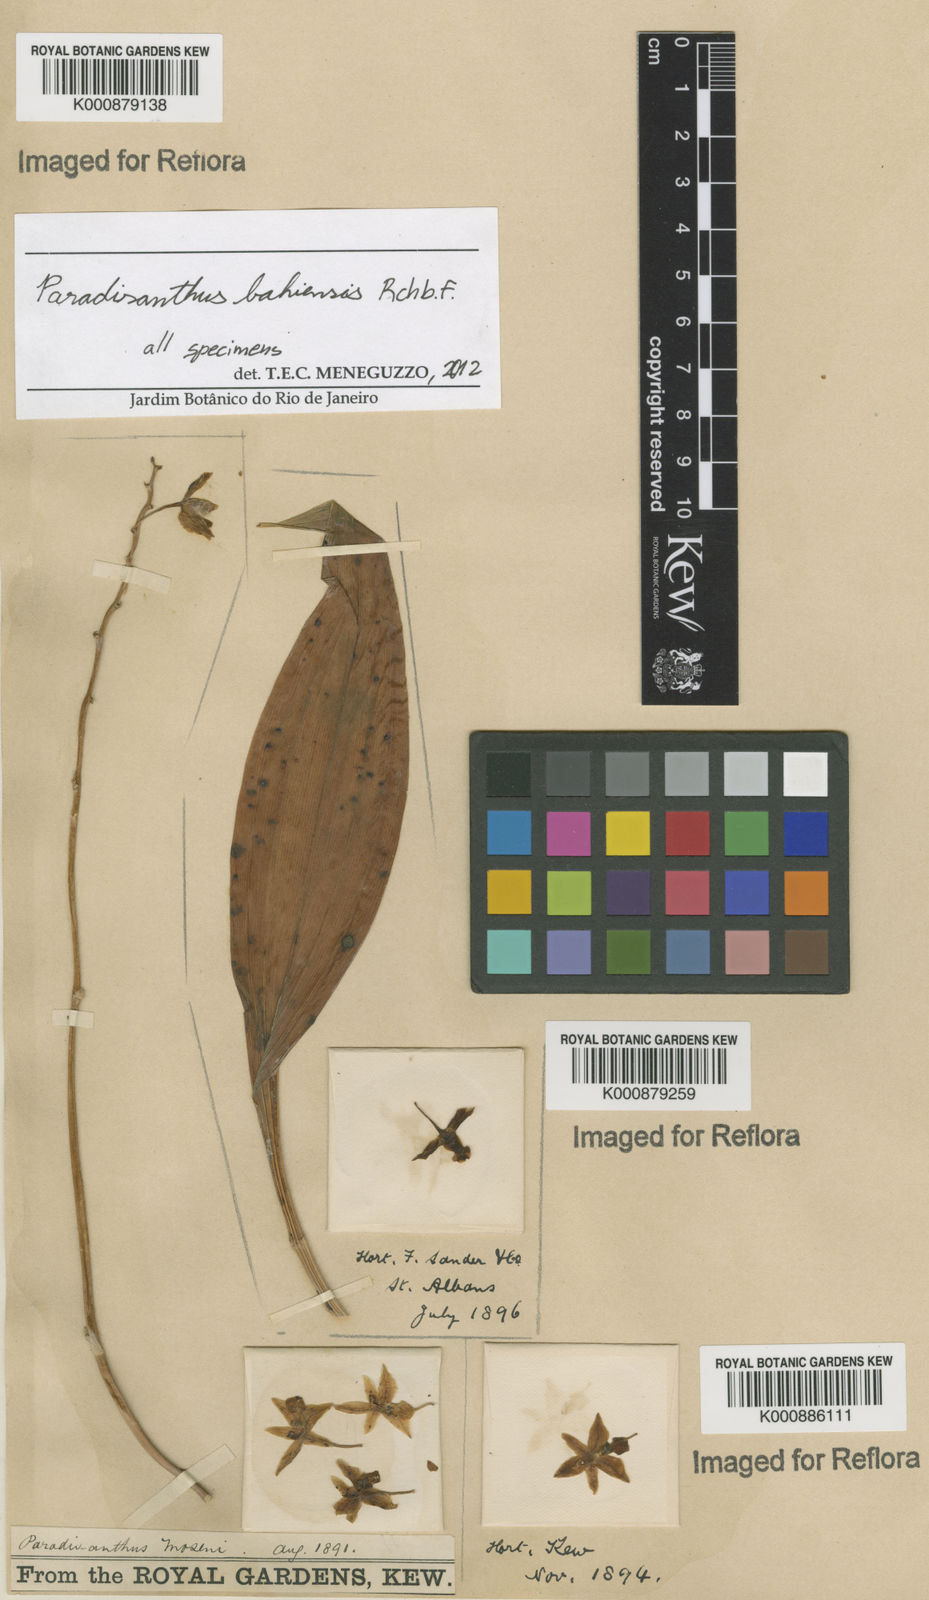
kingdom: Plantae
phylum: Tracheophyta
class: Liliopsida
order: Asparagales
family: Orchidaceae
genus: Paradisanthus
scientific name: Paradisanthus bahiensis
